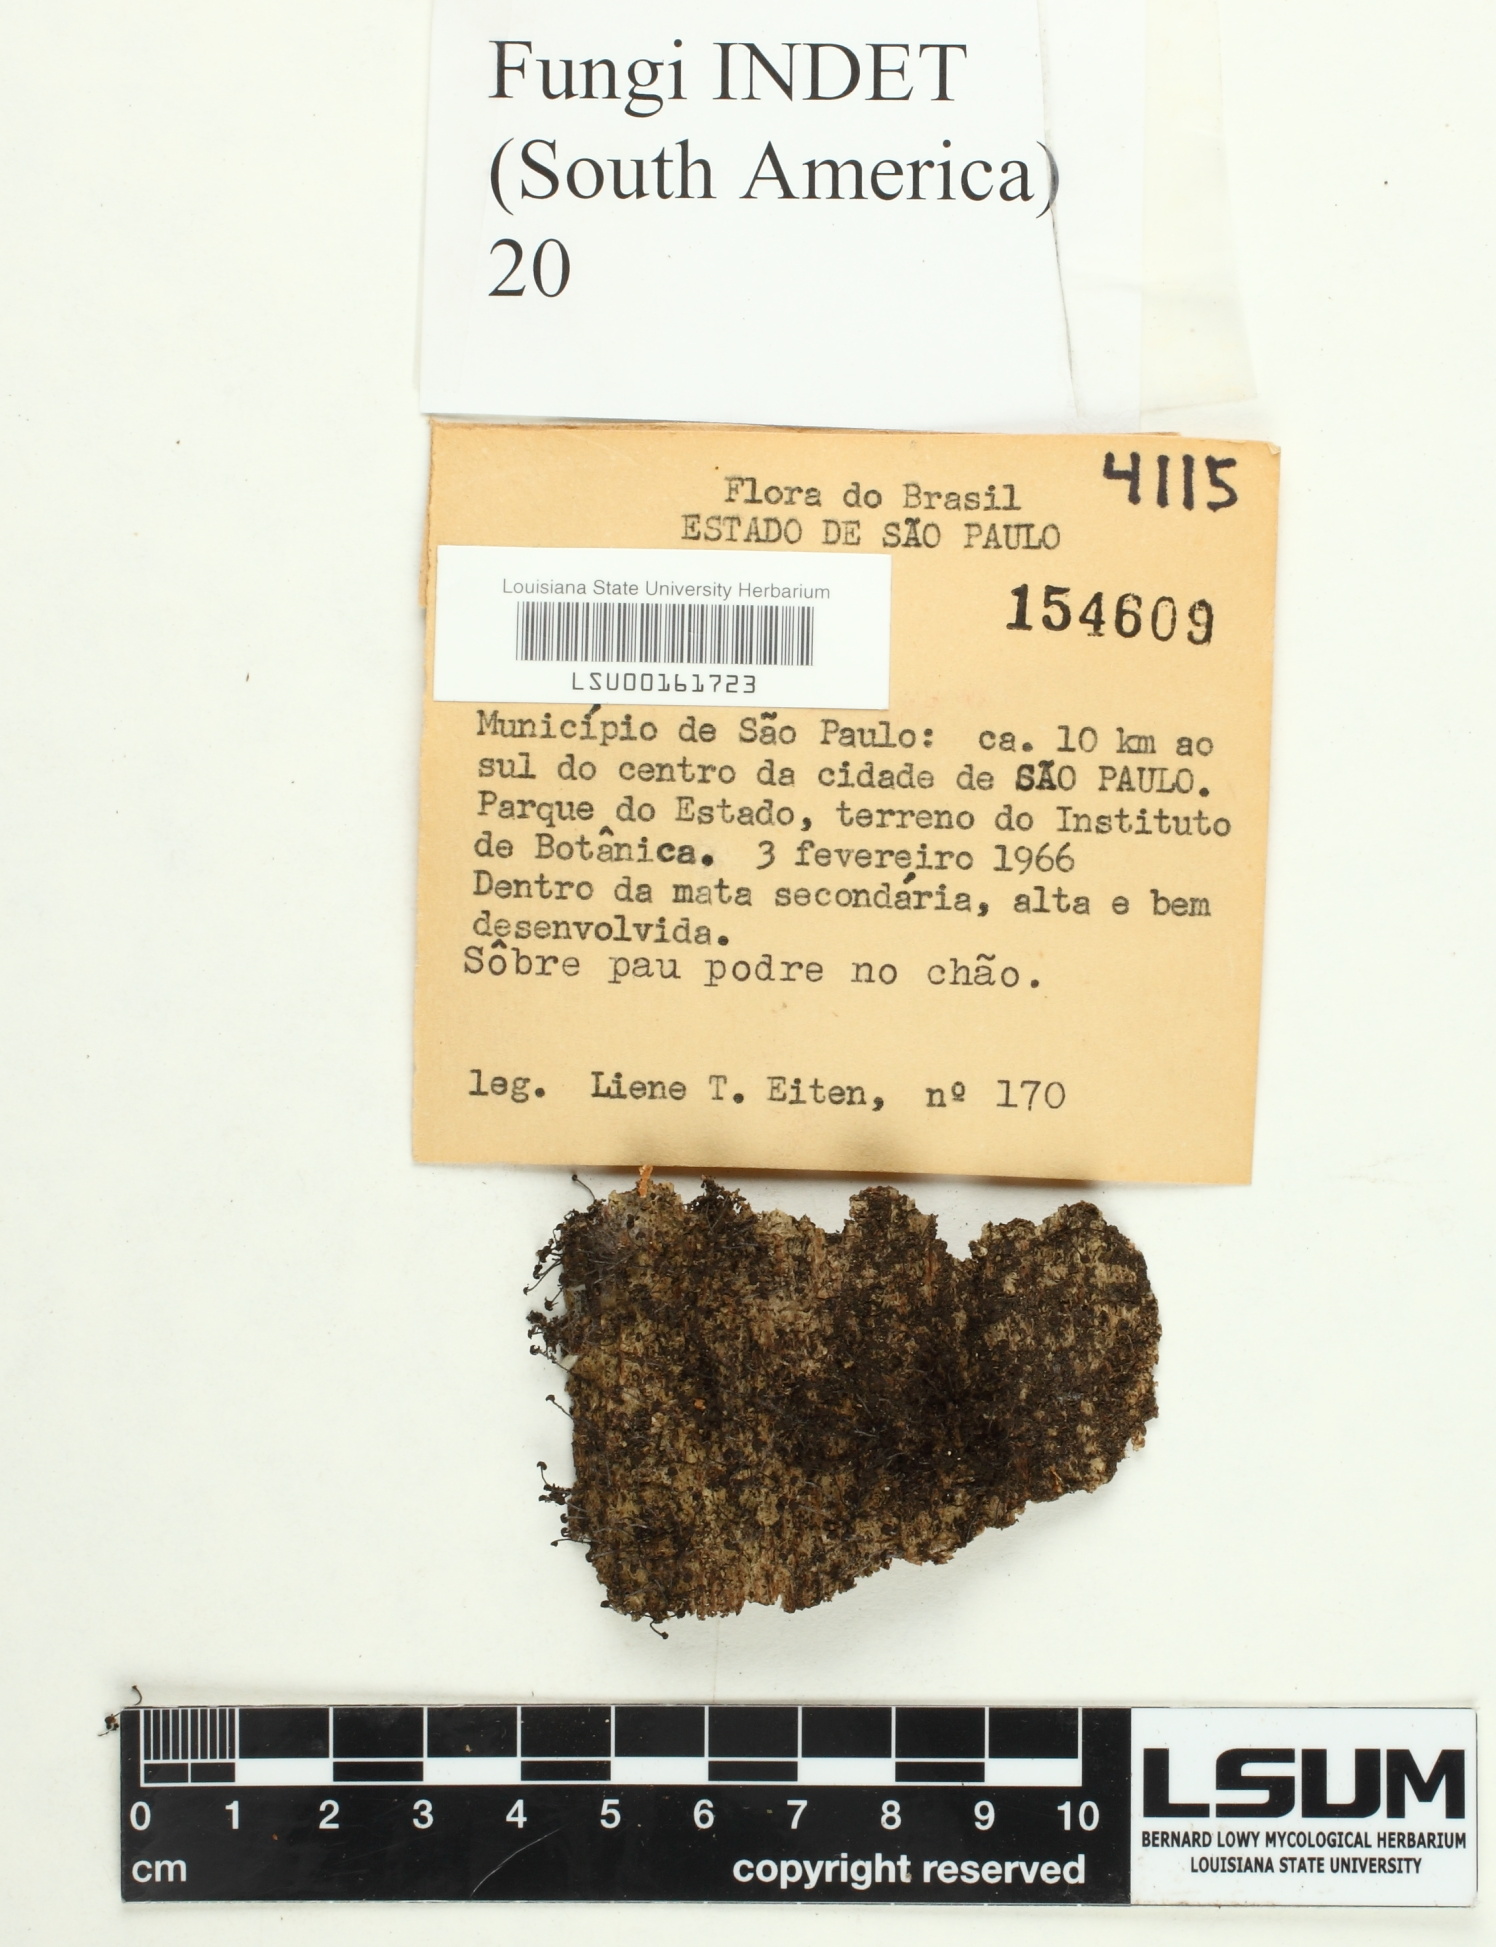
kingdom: Fungi
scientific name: Fungi
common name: Fungi
